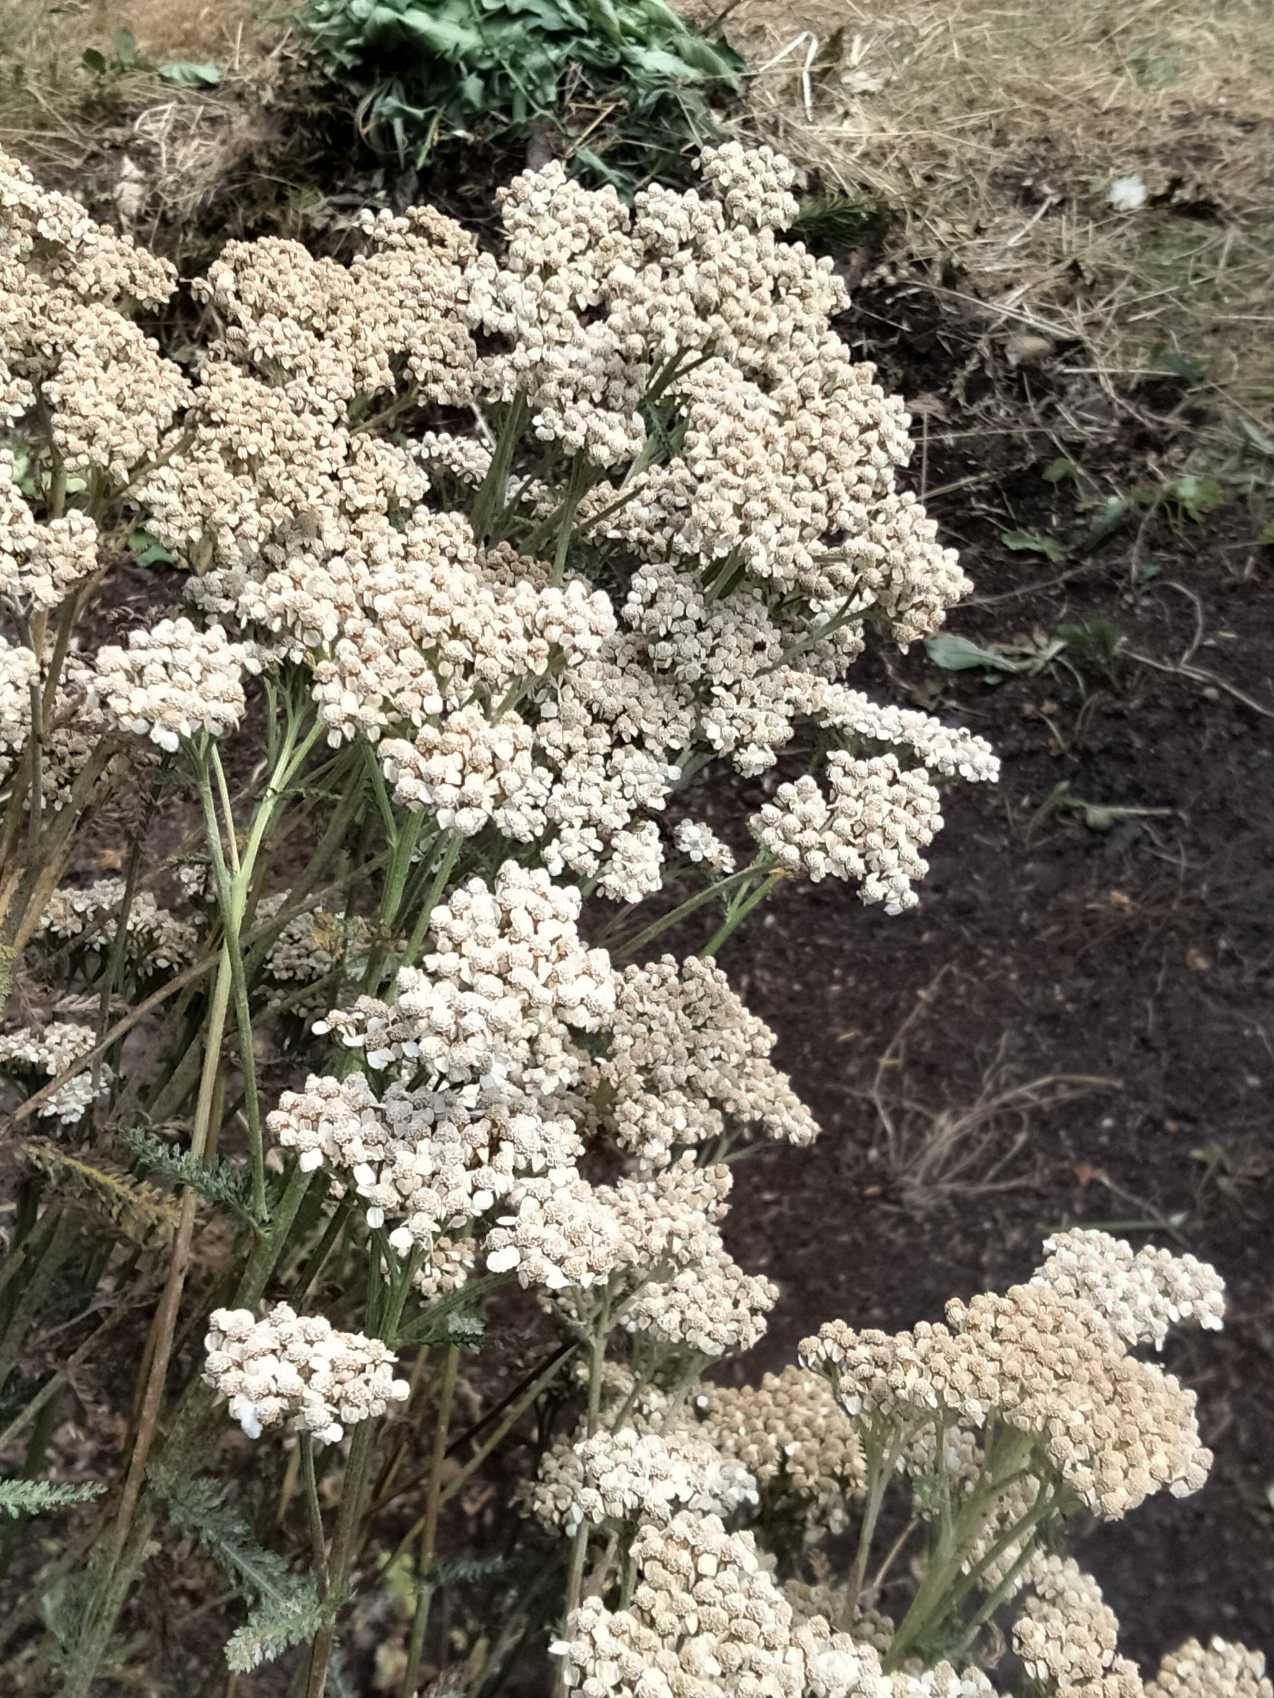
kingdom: Plantae
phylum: Tracheophyta
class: Magnoliopsida
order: Asterales
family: Asteraceae
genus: Achillea
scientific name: Achillea millefolium
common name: Almindelig røllike
